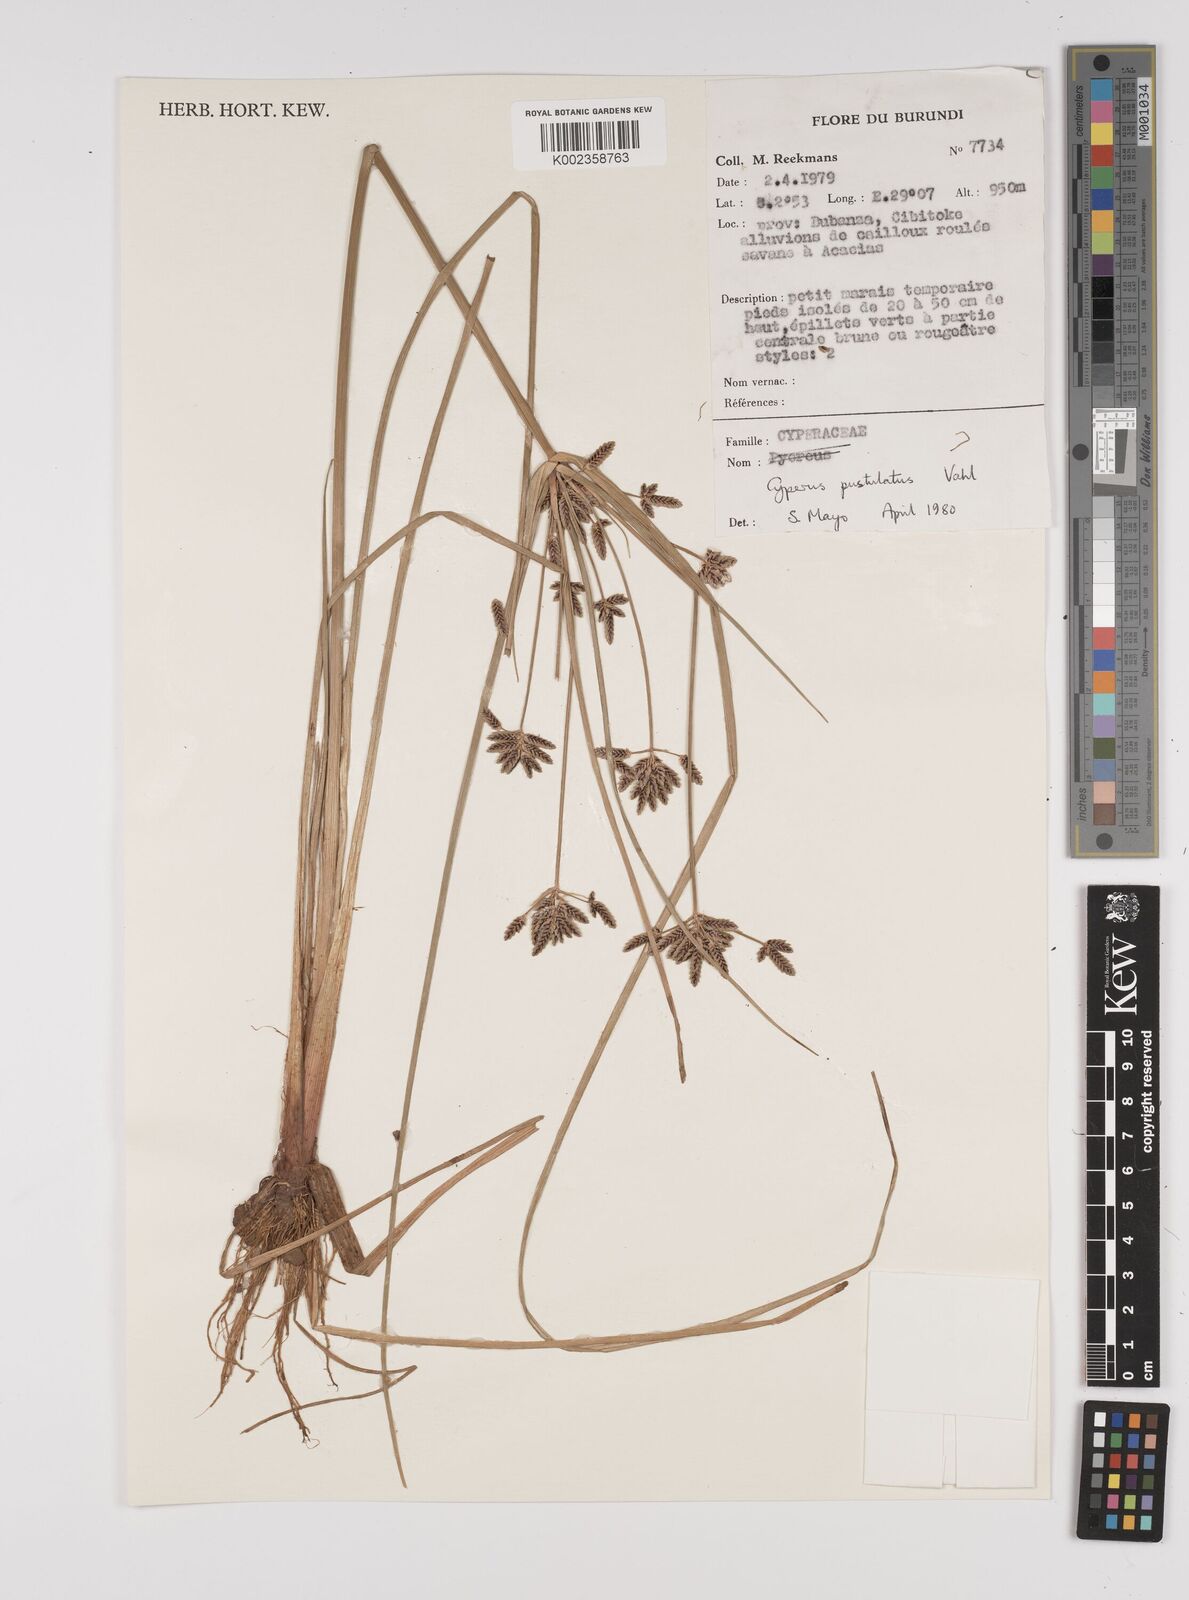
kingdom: Plantae
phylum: Tracheophyta
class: Liliopsida
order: Poales
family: Cyperaceae
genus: Cyperus
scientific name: Cyperus pustulatus
